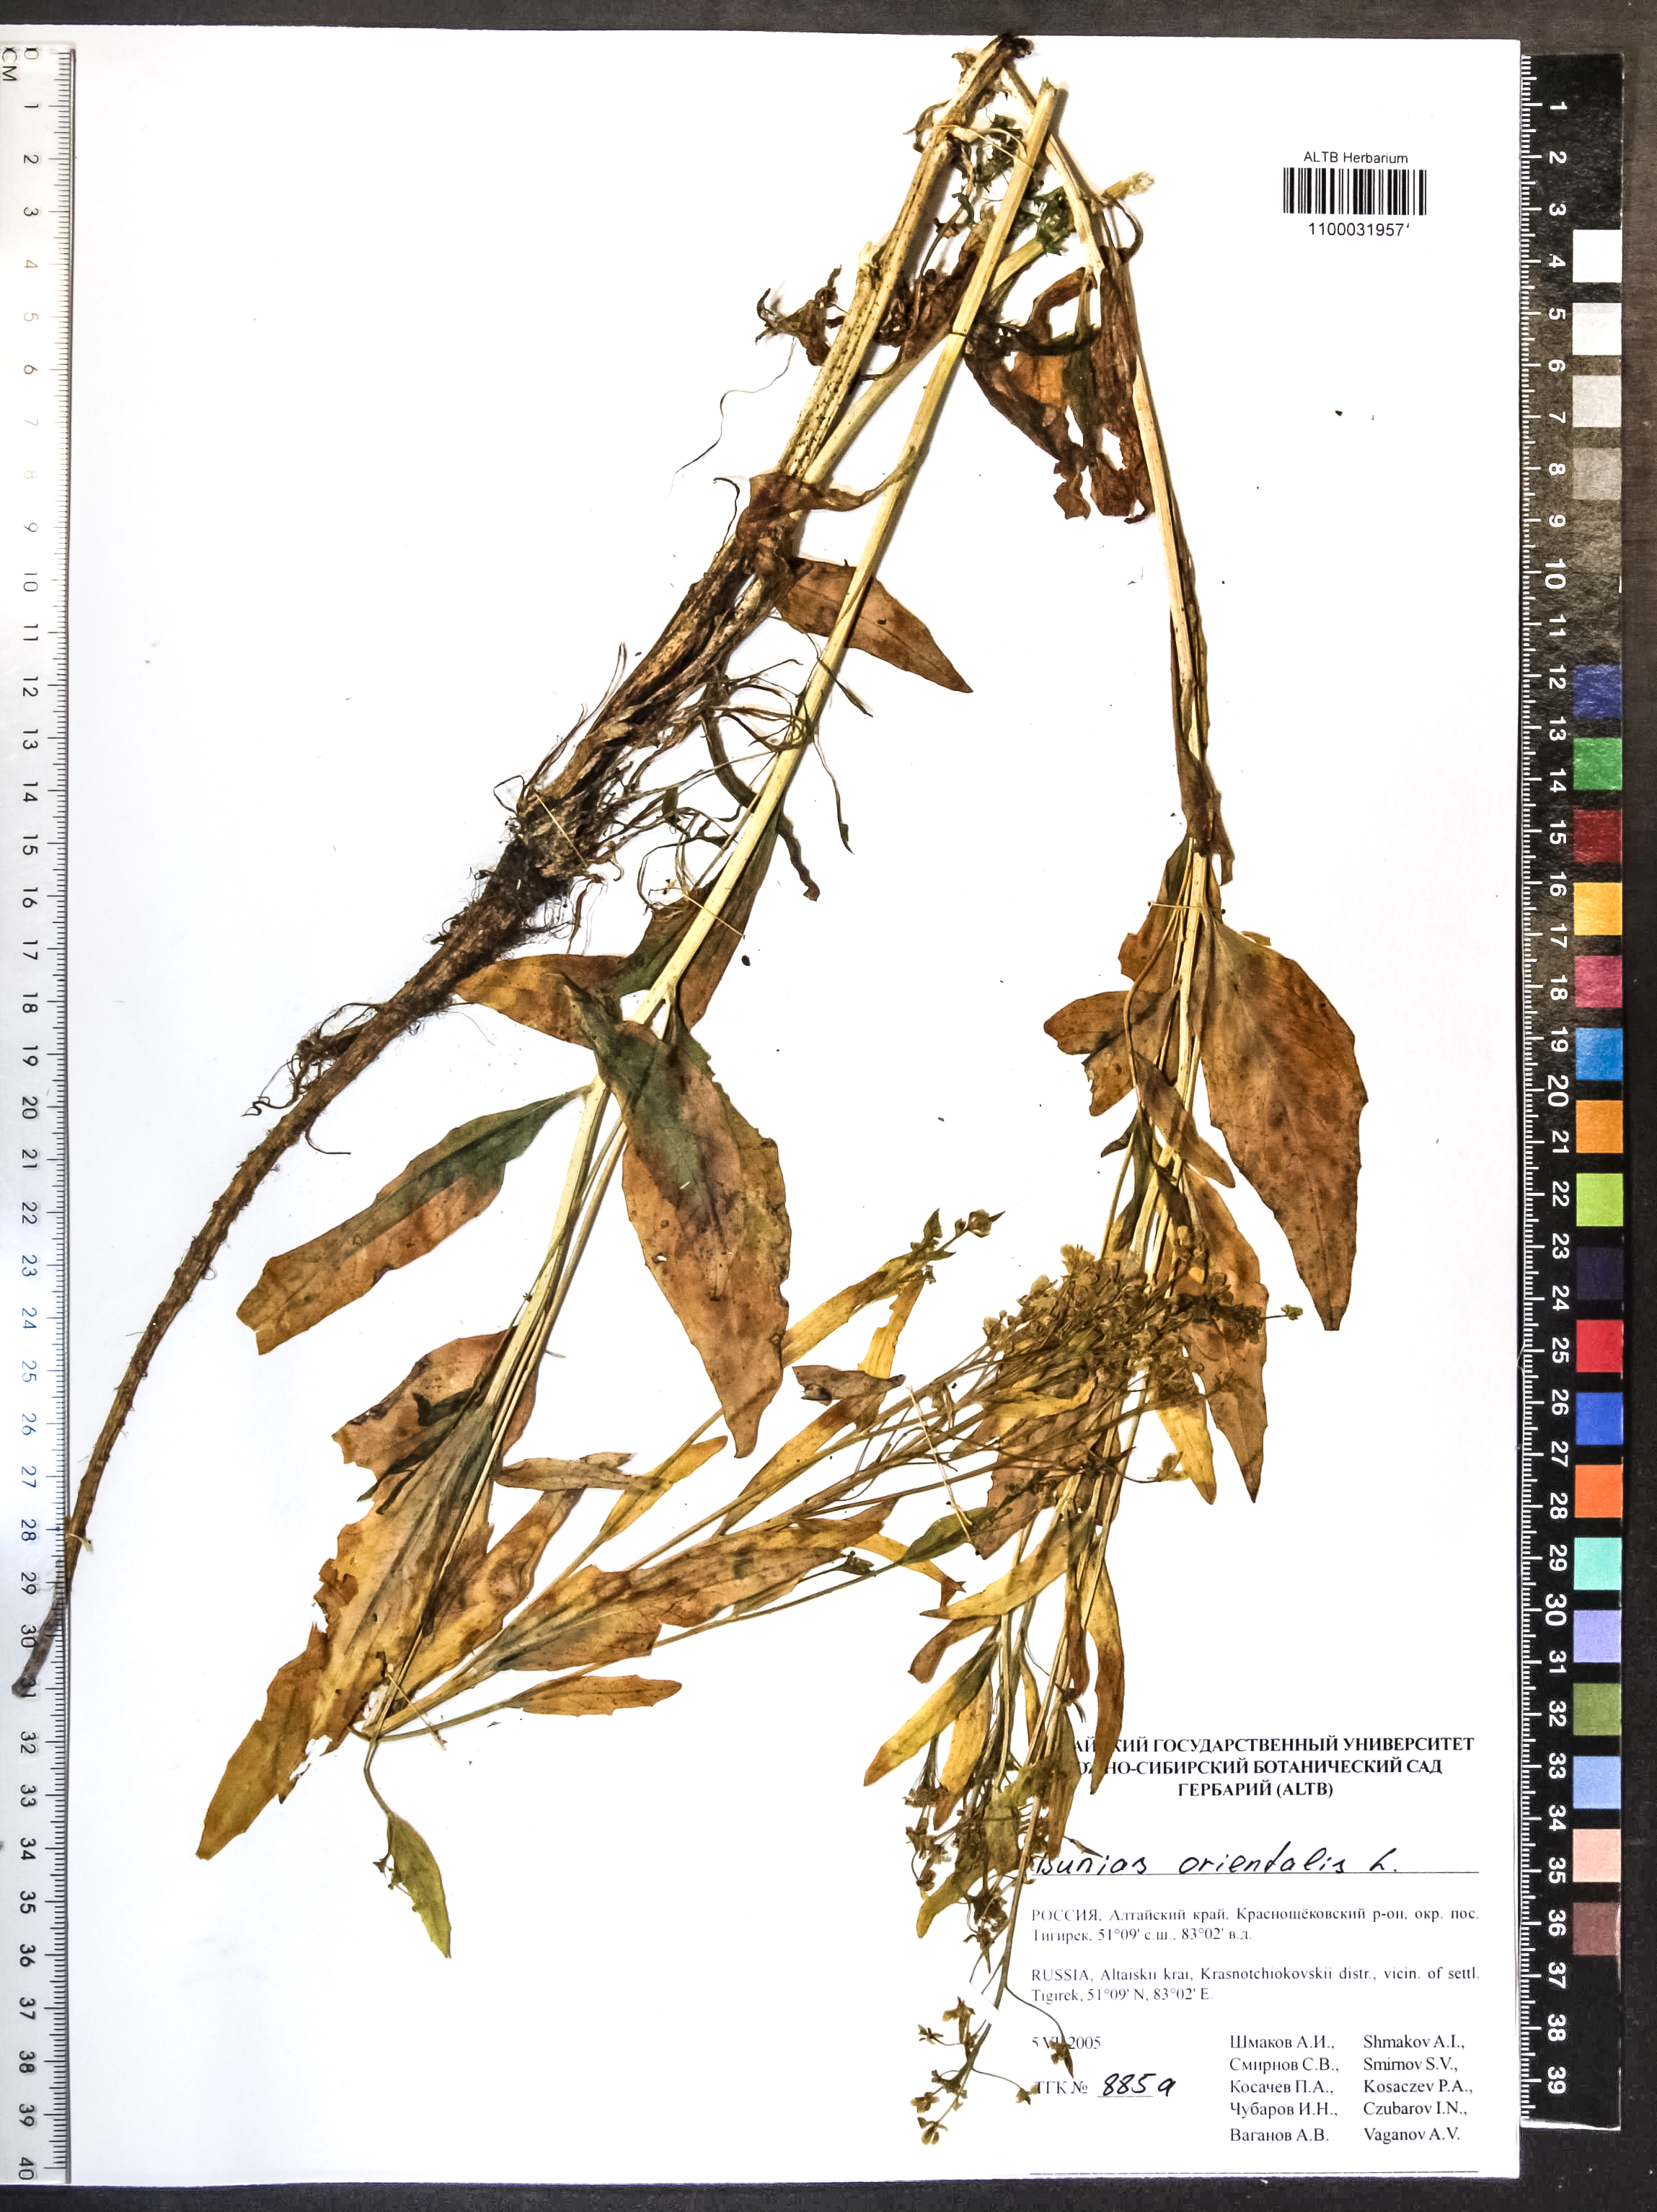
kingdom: Plantae
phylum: Tracheophyta
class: Magnoliopsida
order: Brassicales
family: Brassicaceae
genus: Bunias
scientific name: Bunias orientalis
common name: Warty-cabbage
